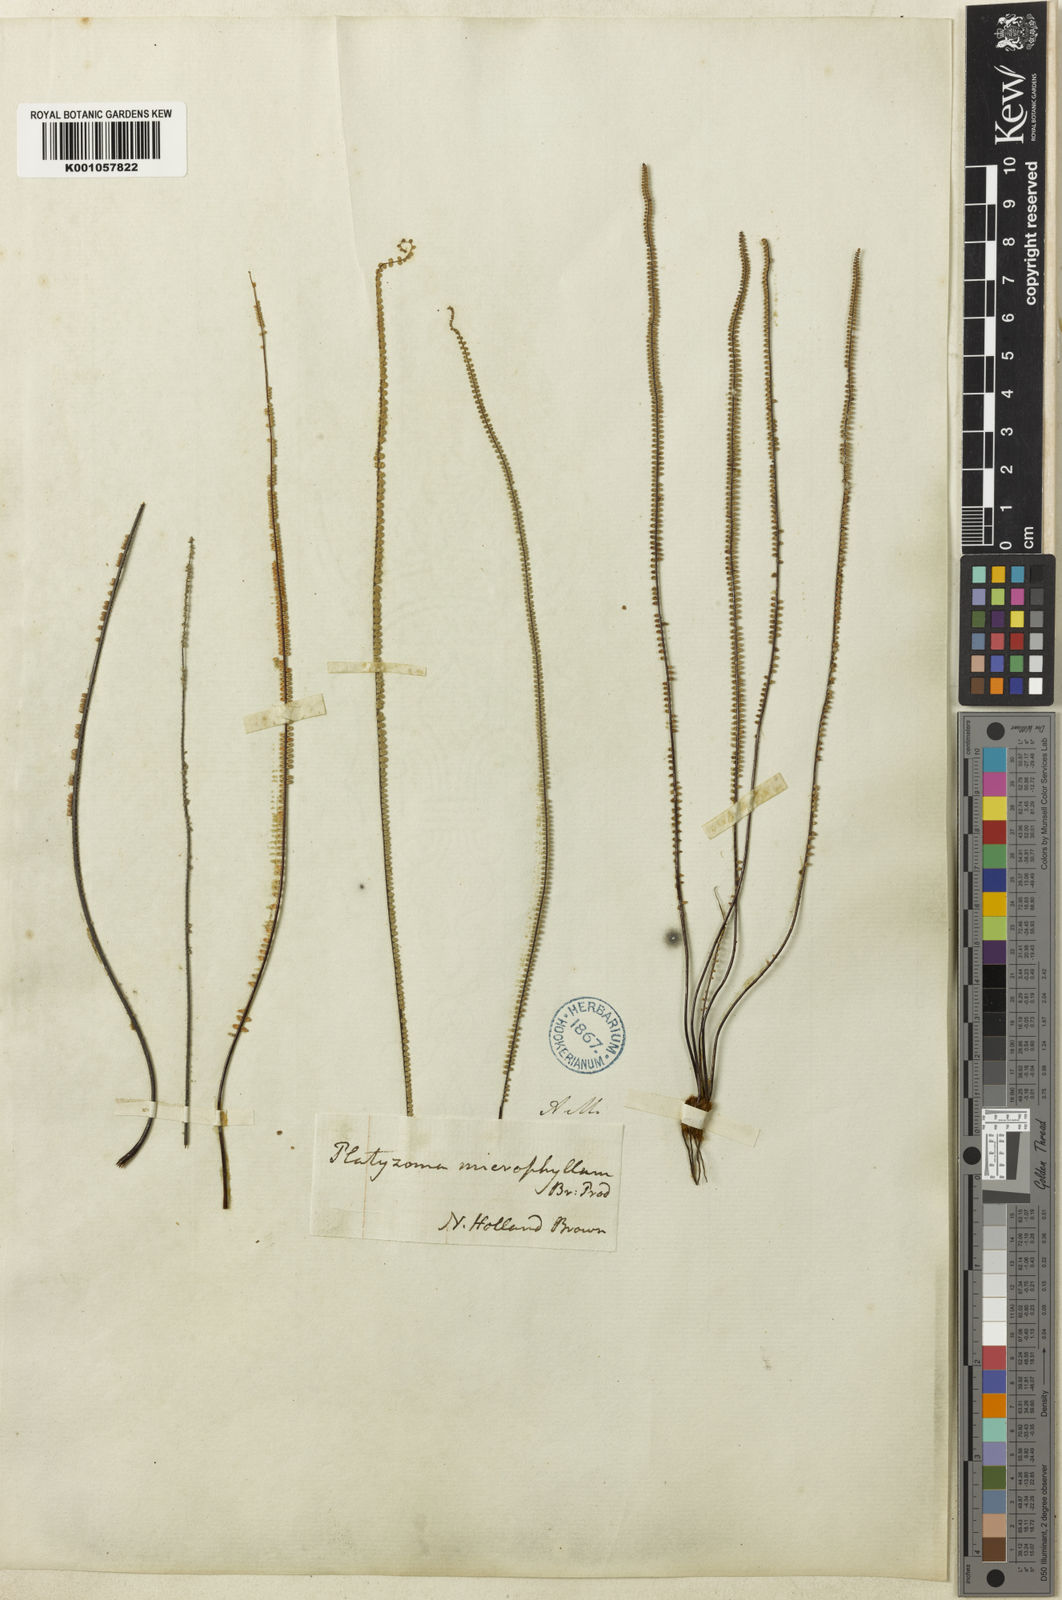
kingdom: Plantae
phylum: Tracheophyta
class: Polypodiopsida
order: Polypodiales
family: Pteridaceae
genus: Pteris
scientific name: Pteris platyzomopsis
